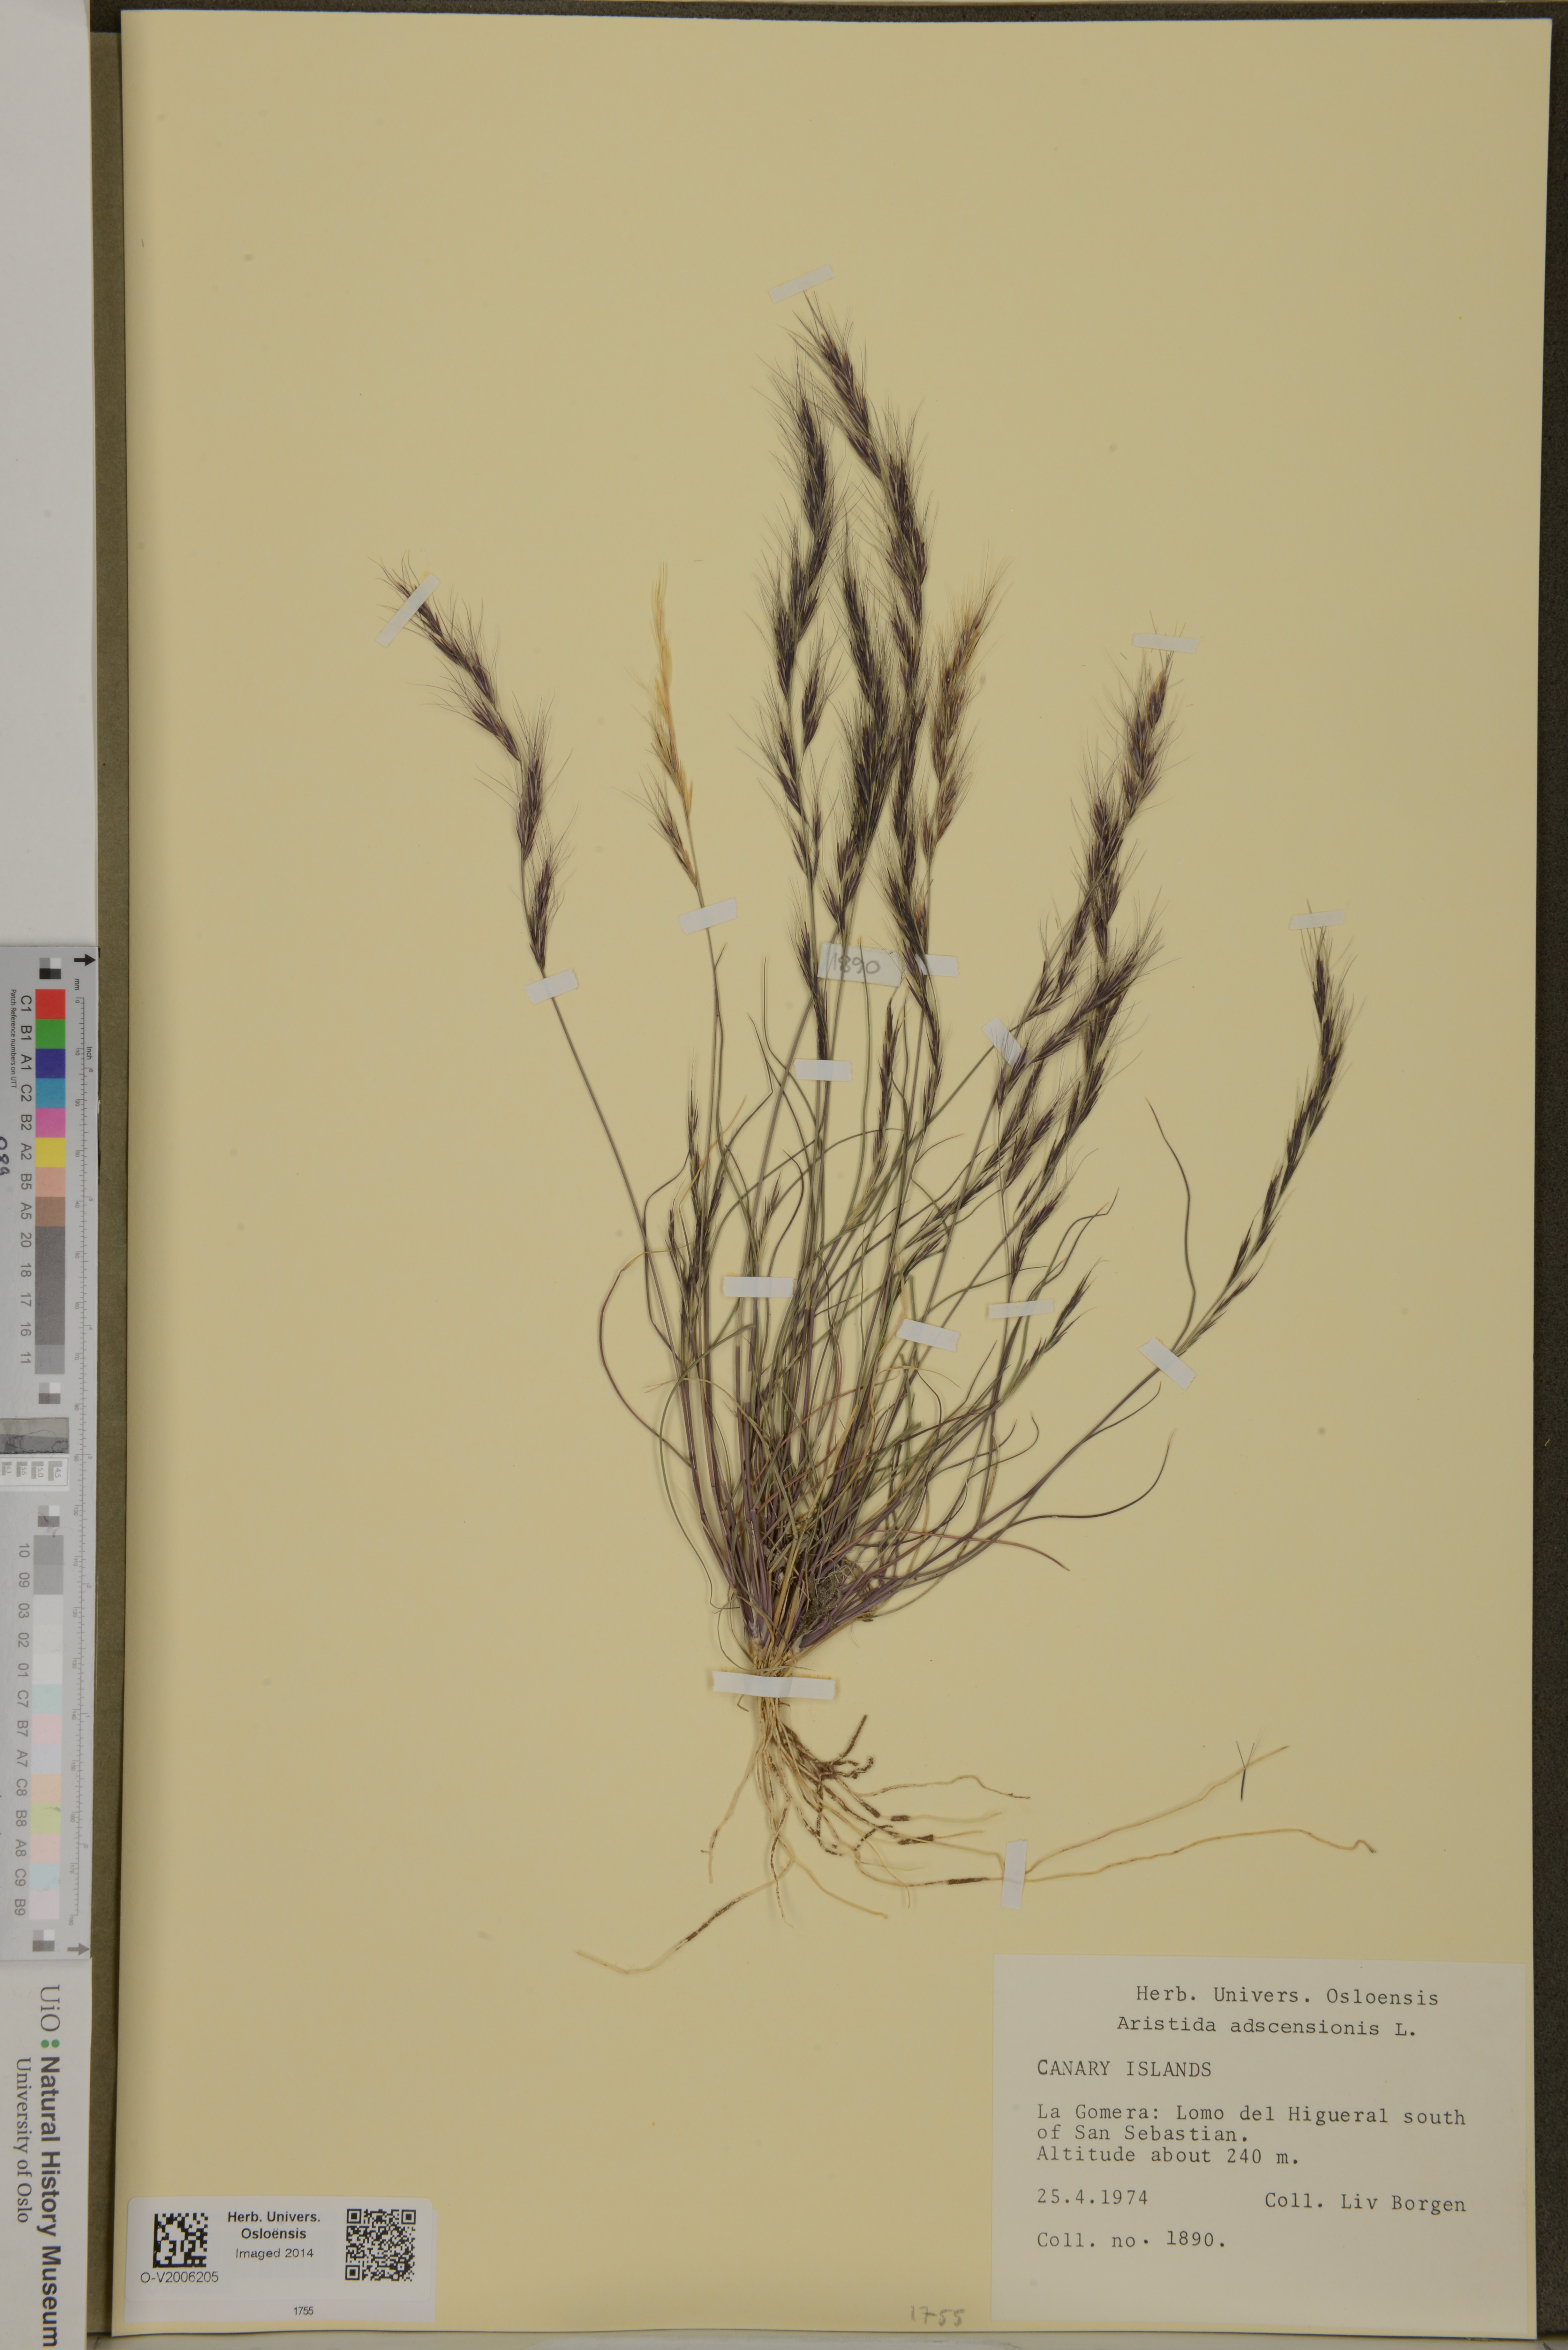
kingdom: Plantae
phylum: Tracheophyta
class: Liliopsida
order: Poales
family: Poaceae
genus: Aristida
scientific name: Aristida adscensionis
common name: Sixweeks threeawn
